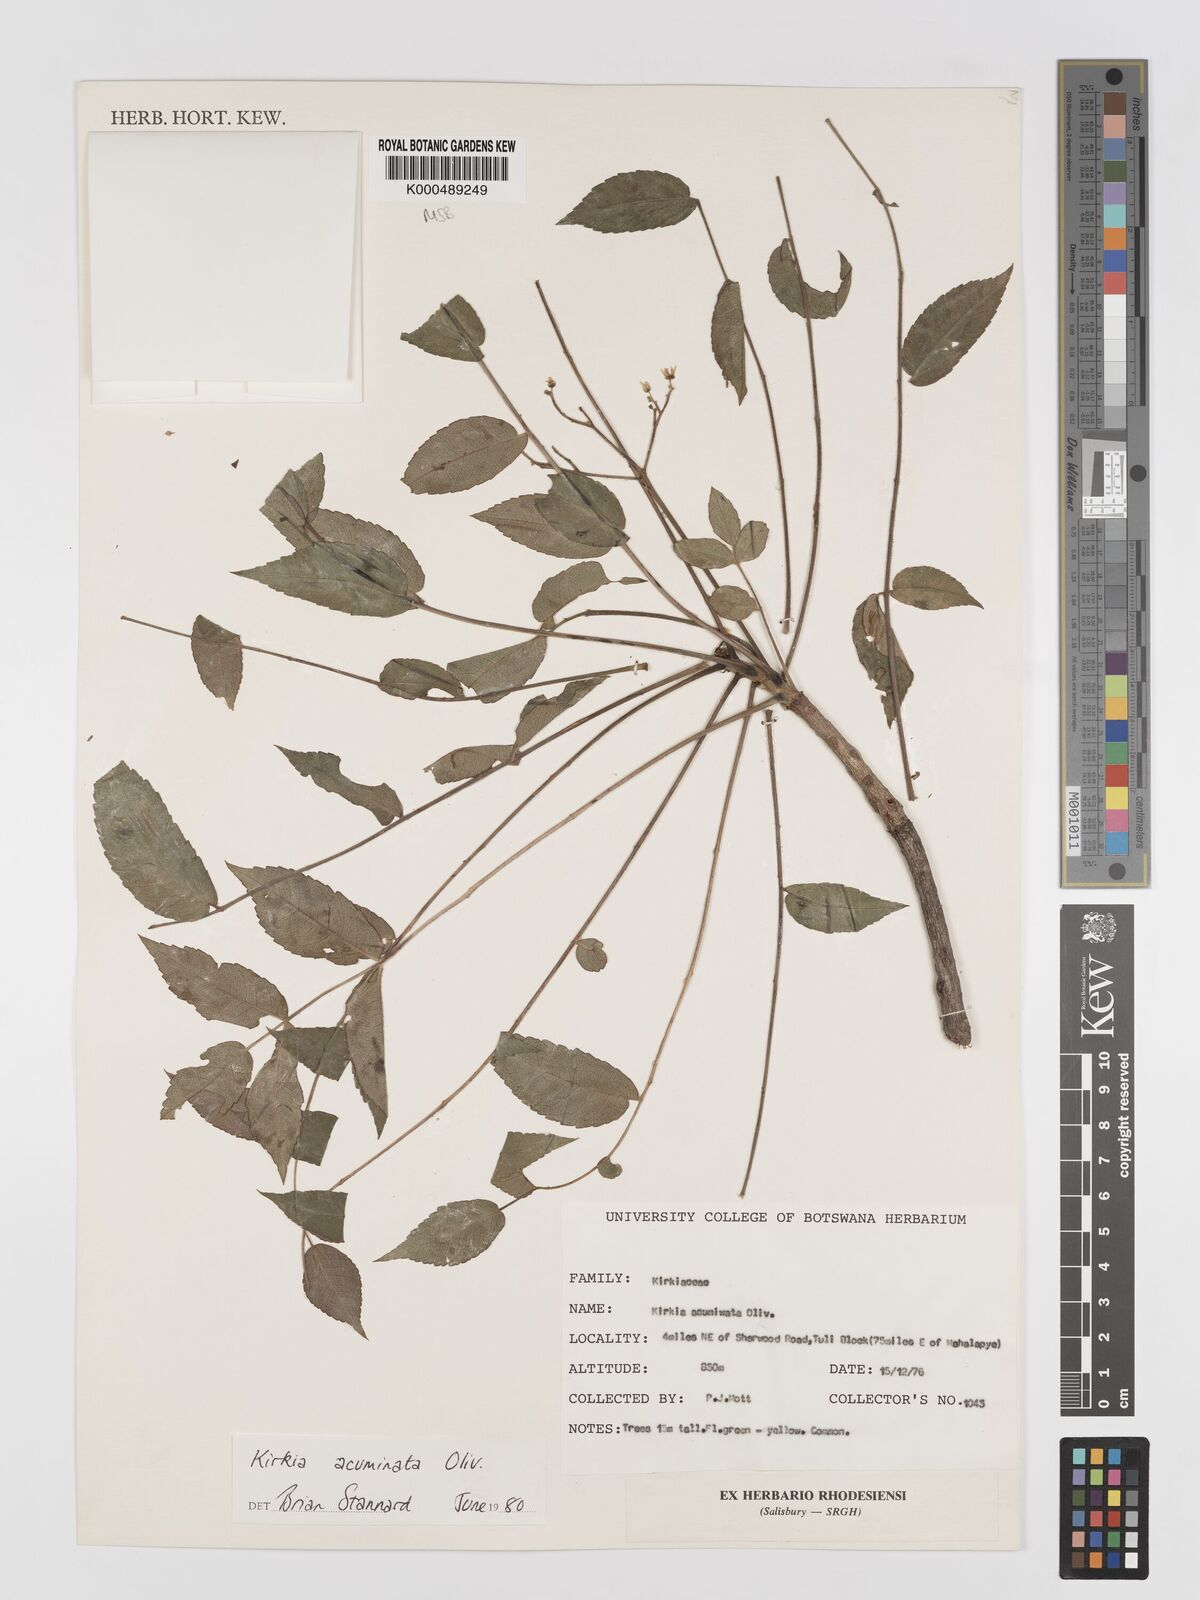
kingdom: Plantae
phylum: Tracheophyta
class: Magnoliopsida
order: Sapindales
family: Kirkiaceae
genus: Kirkia
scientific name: Kirkia acuminata
